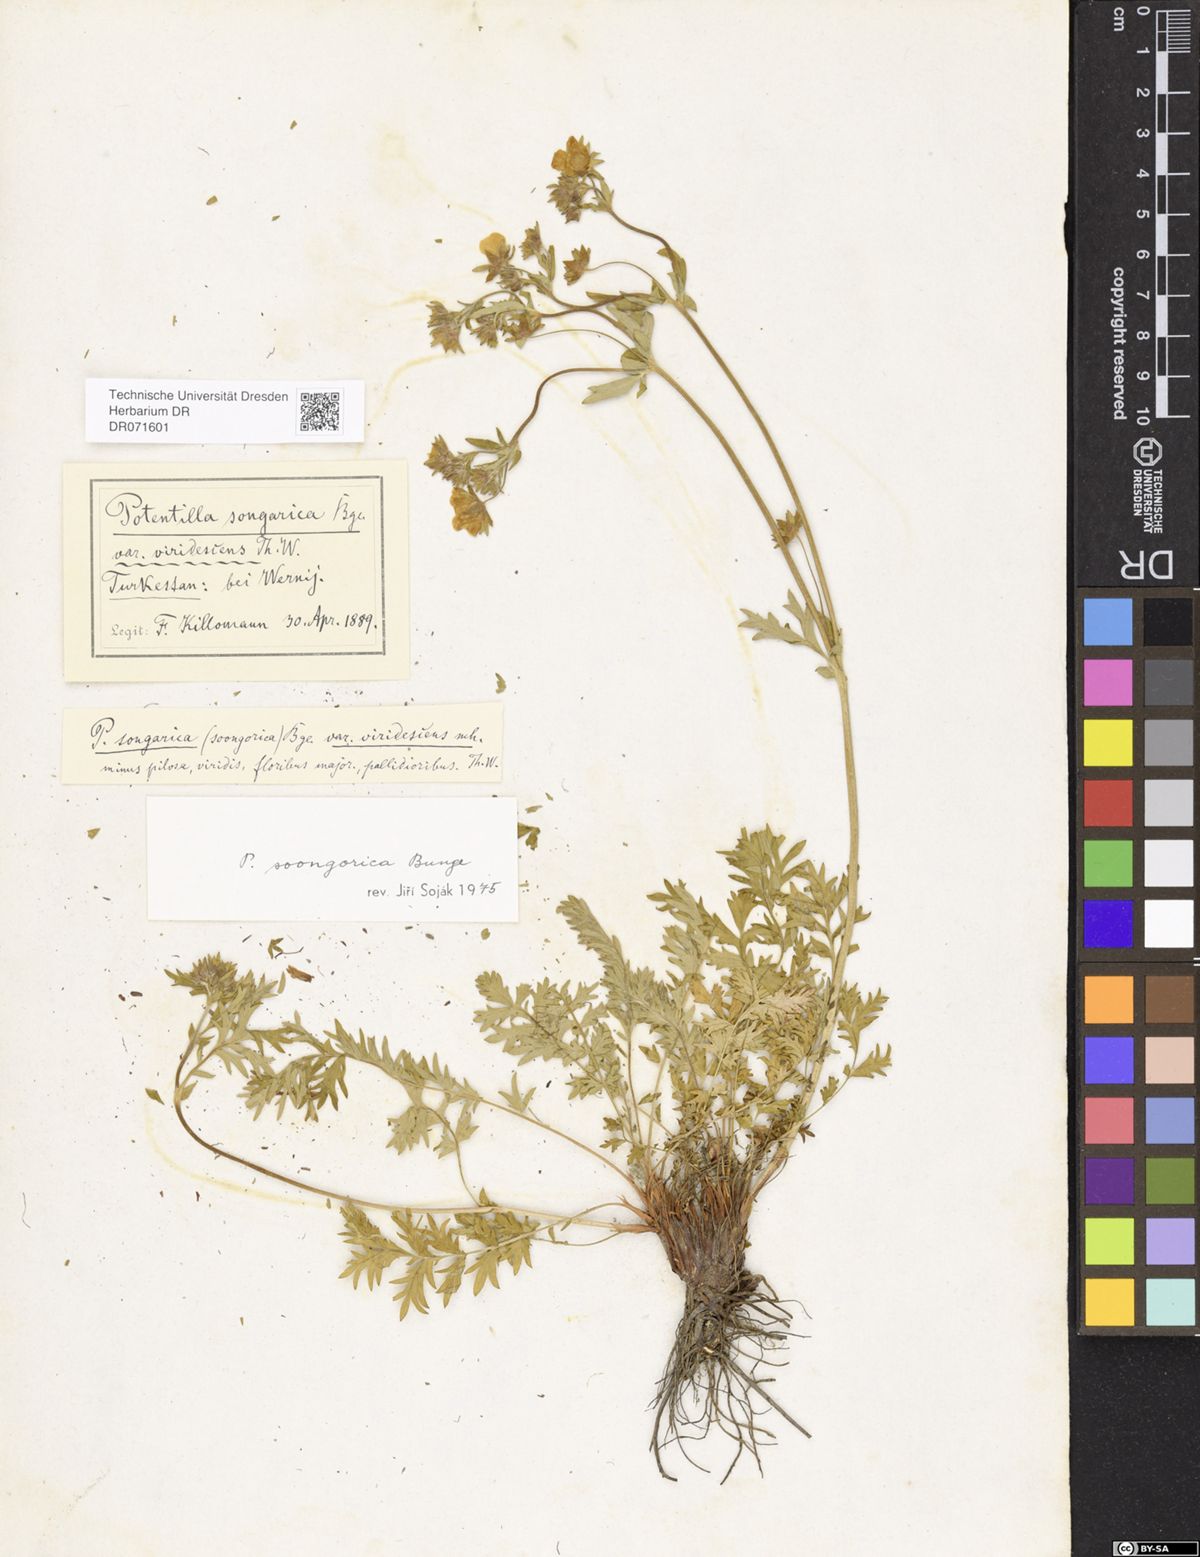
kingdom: Plantae
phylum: Tracheophyta
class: Magnoliopsida
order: Rosales
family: Rosaceae
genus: Potentilla
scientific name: Potentilla soongorica
